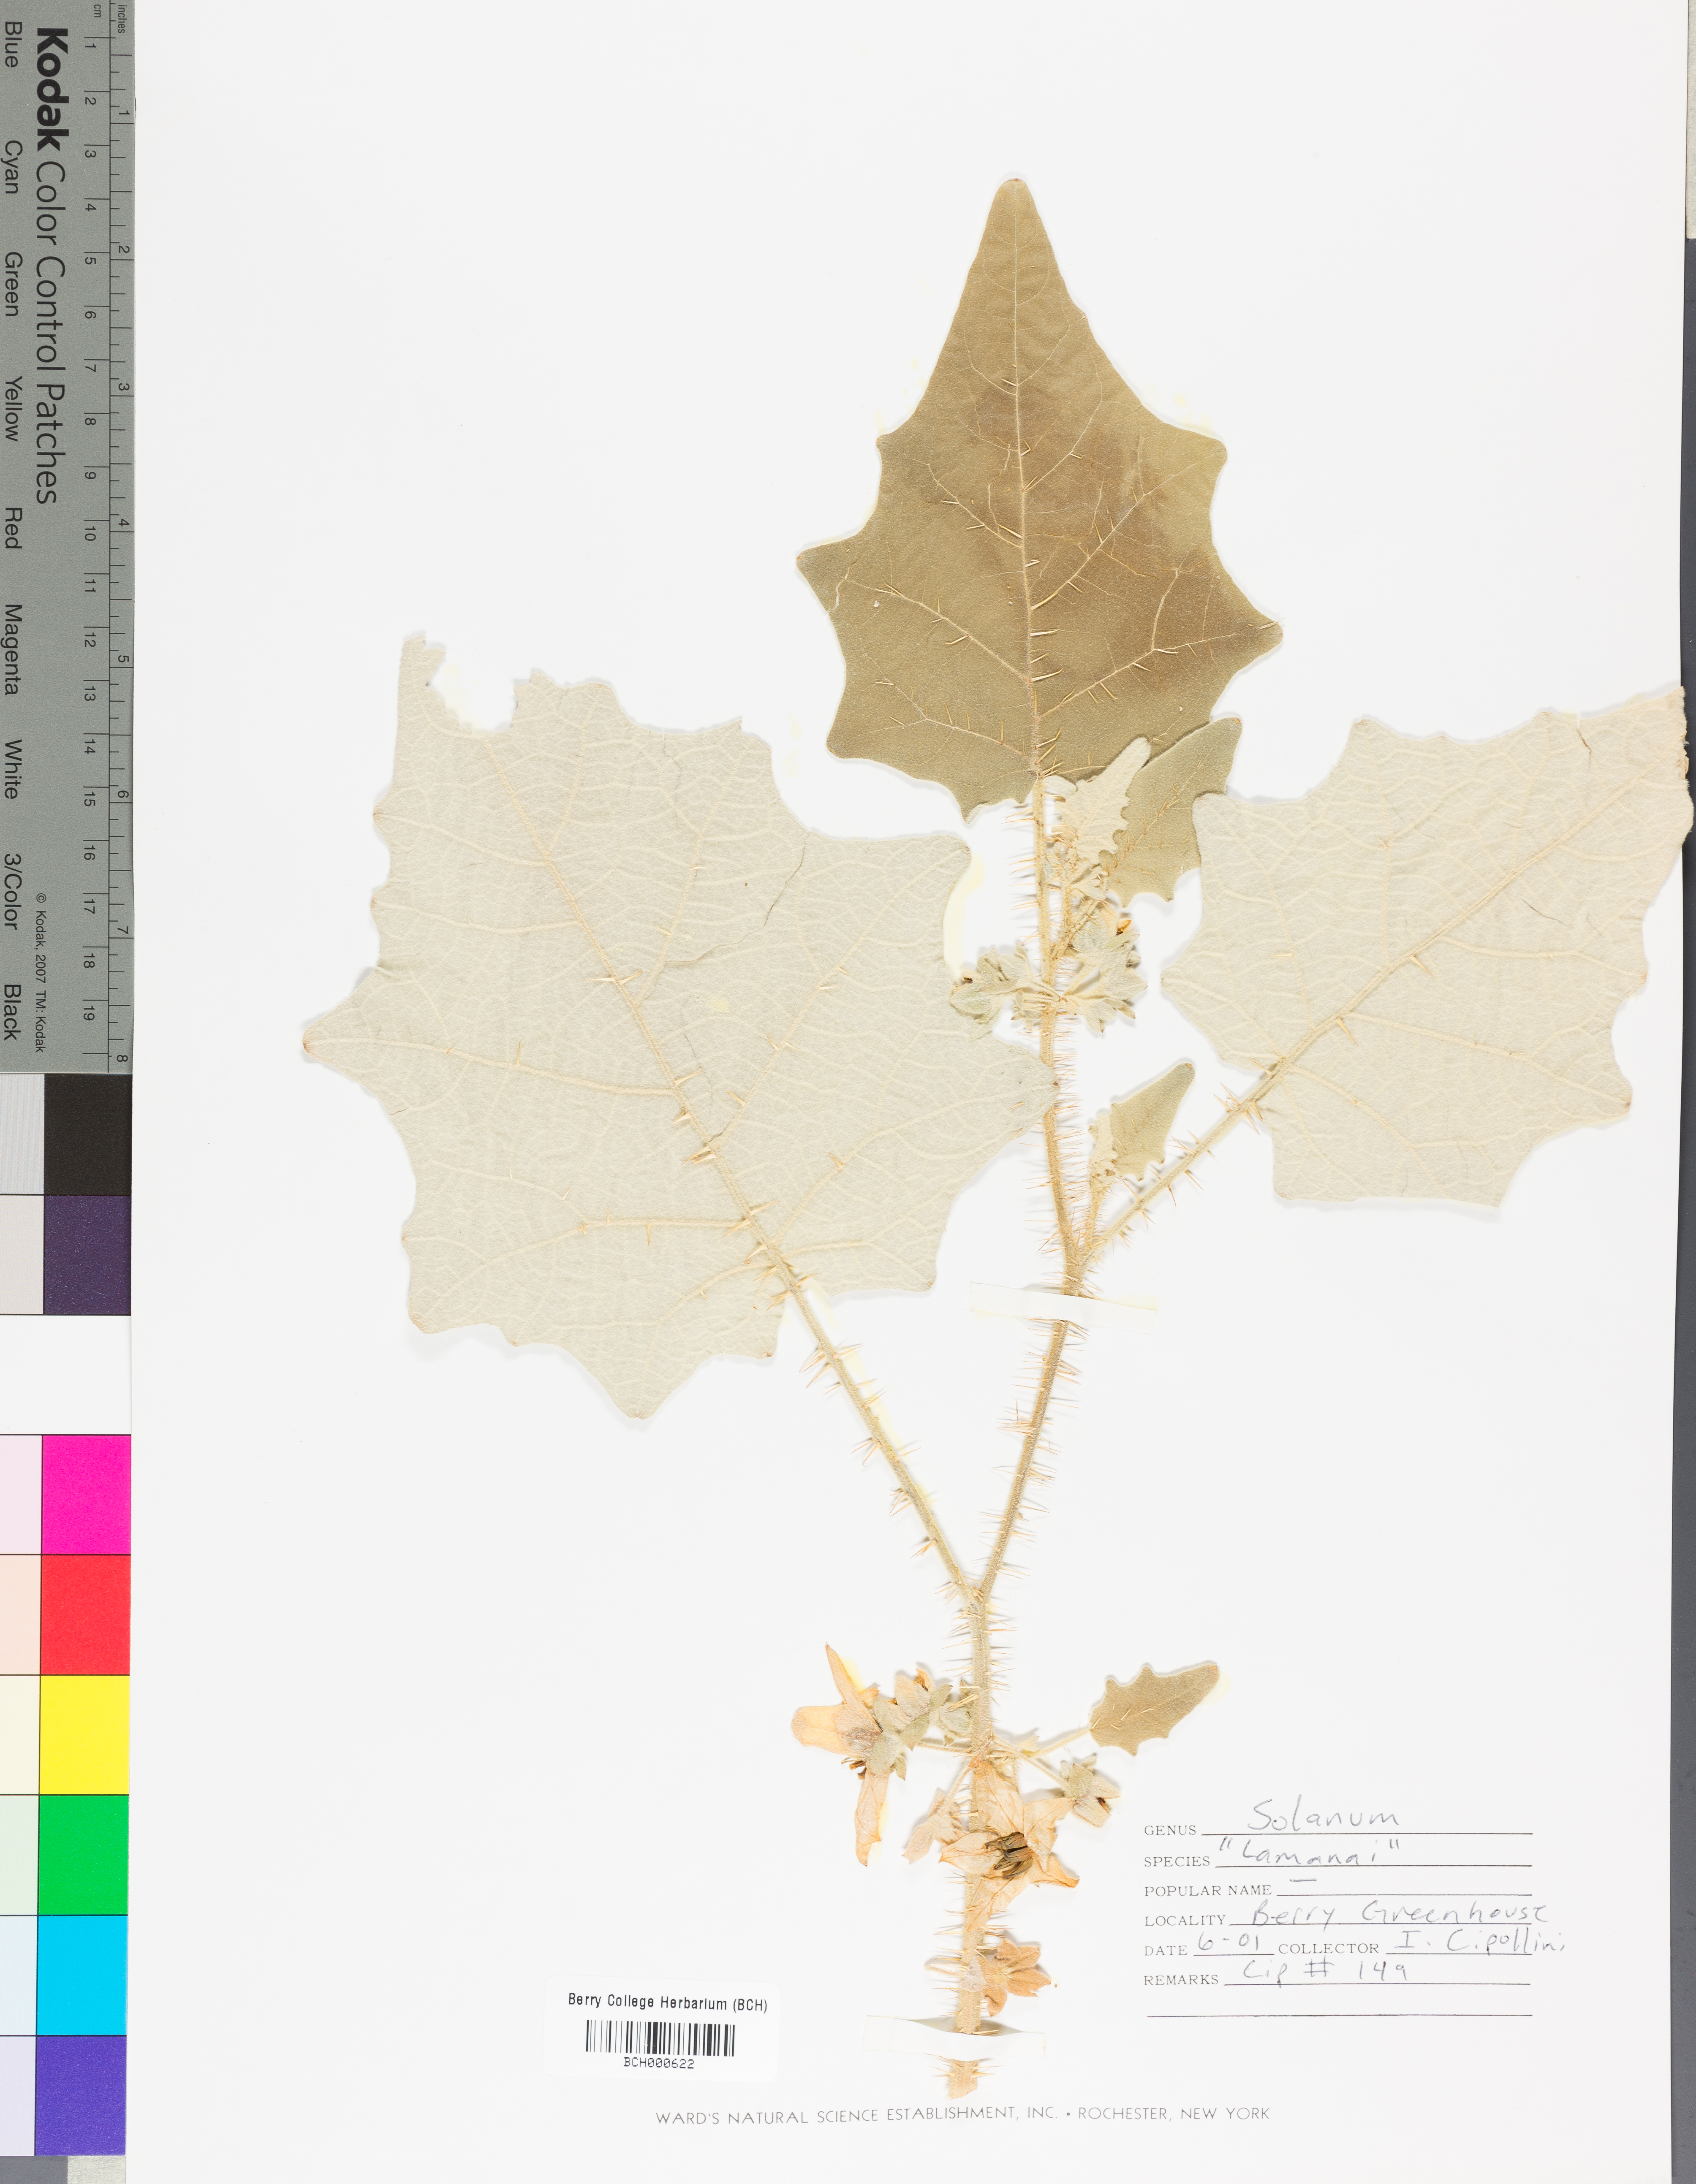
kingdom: Plantae
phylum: Tracheophyta
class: Magnoliopsida
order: Solanales
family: Solanaceae
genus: Solanum
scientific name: Solanum
